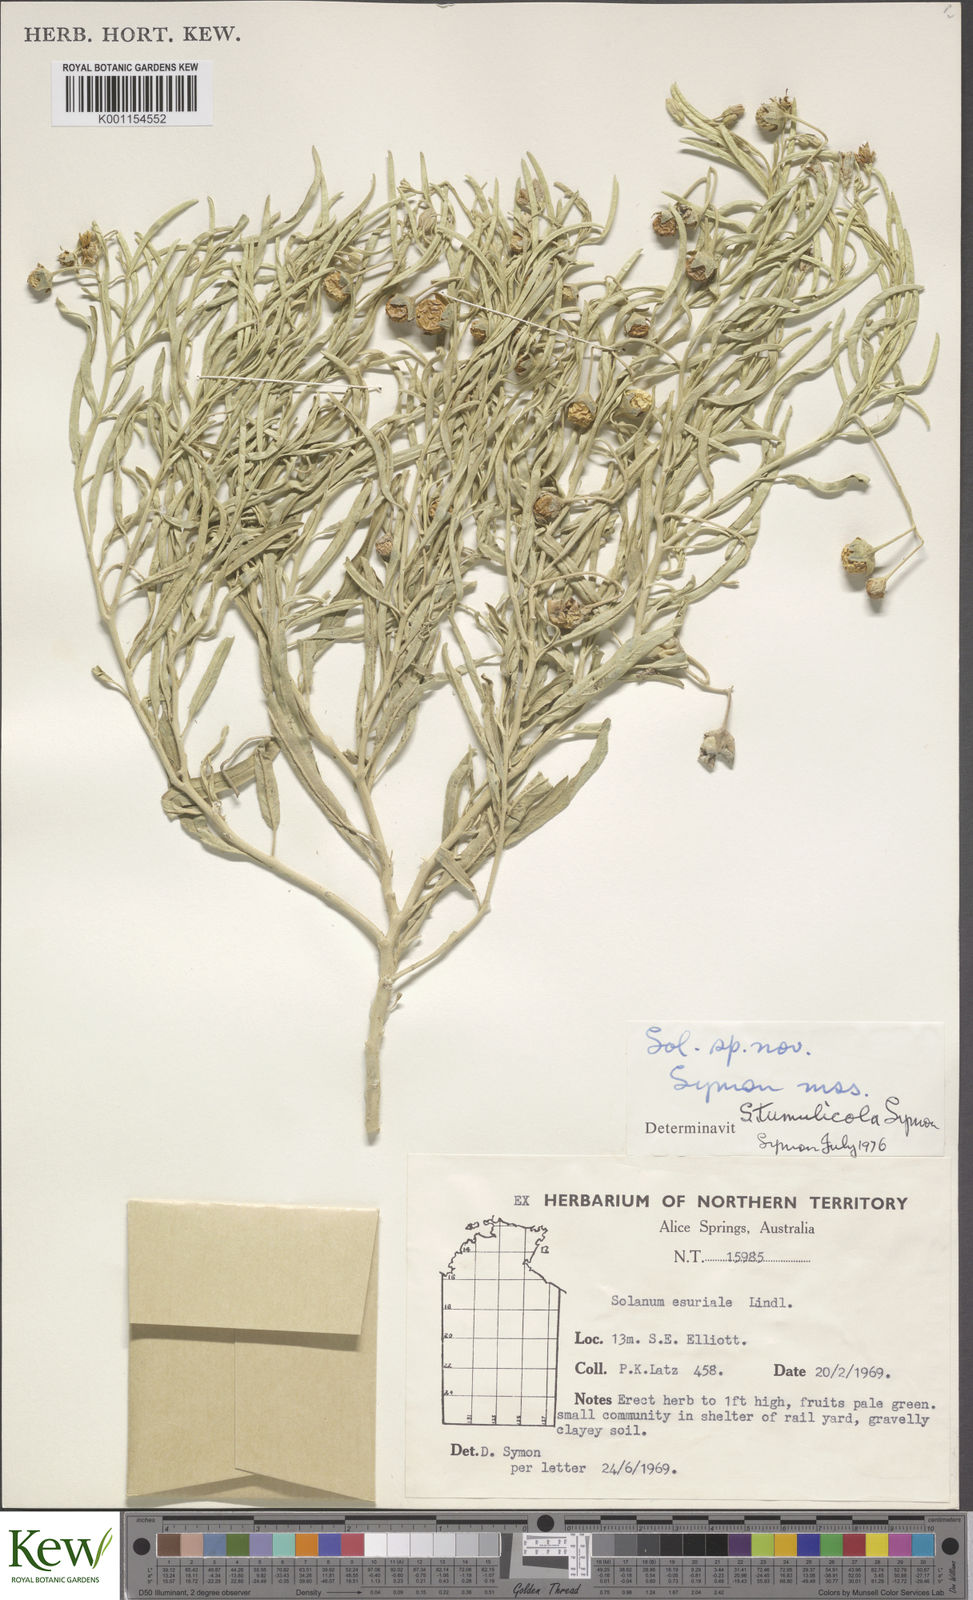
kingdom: Plantae
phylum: Tracheophyta
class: Magnoliopsida
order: Solanales
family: Solanaceae
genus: Solanum
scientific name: Solanum tumulicola
